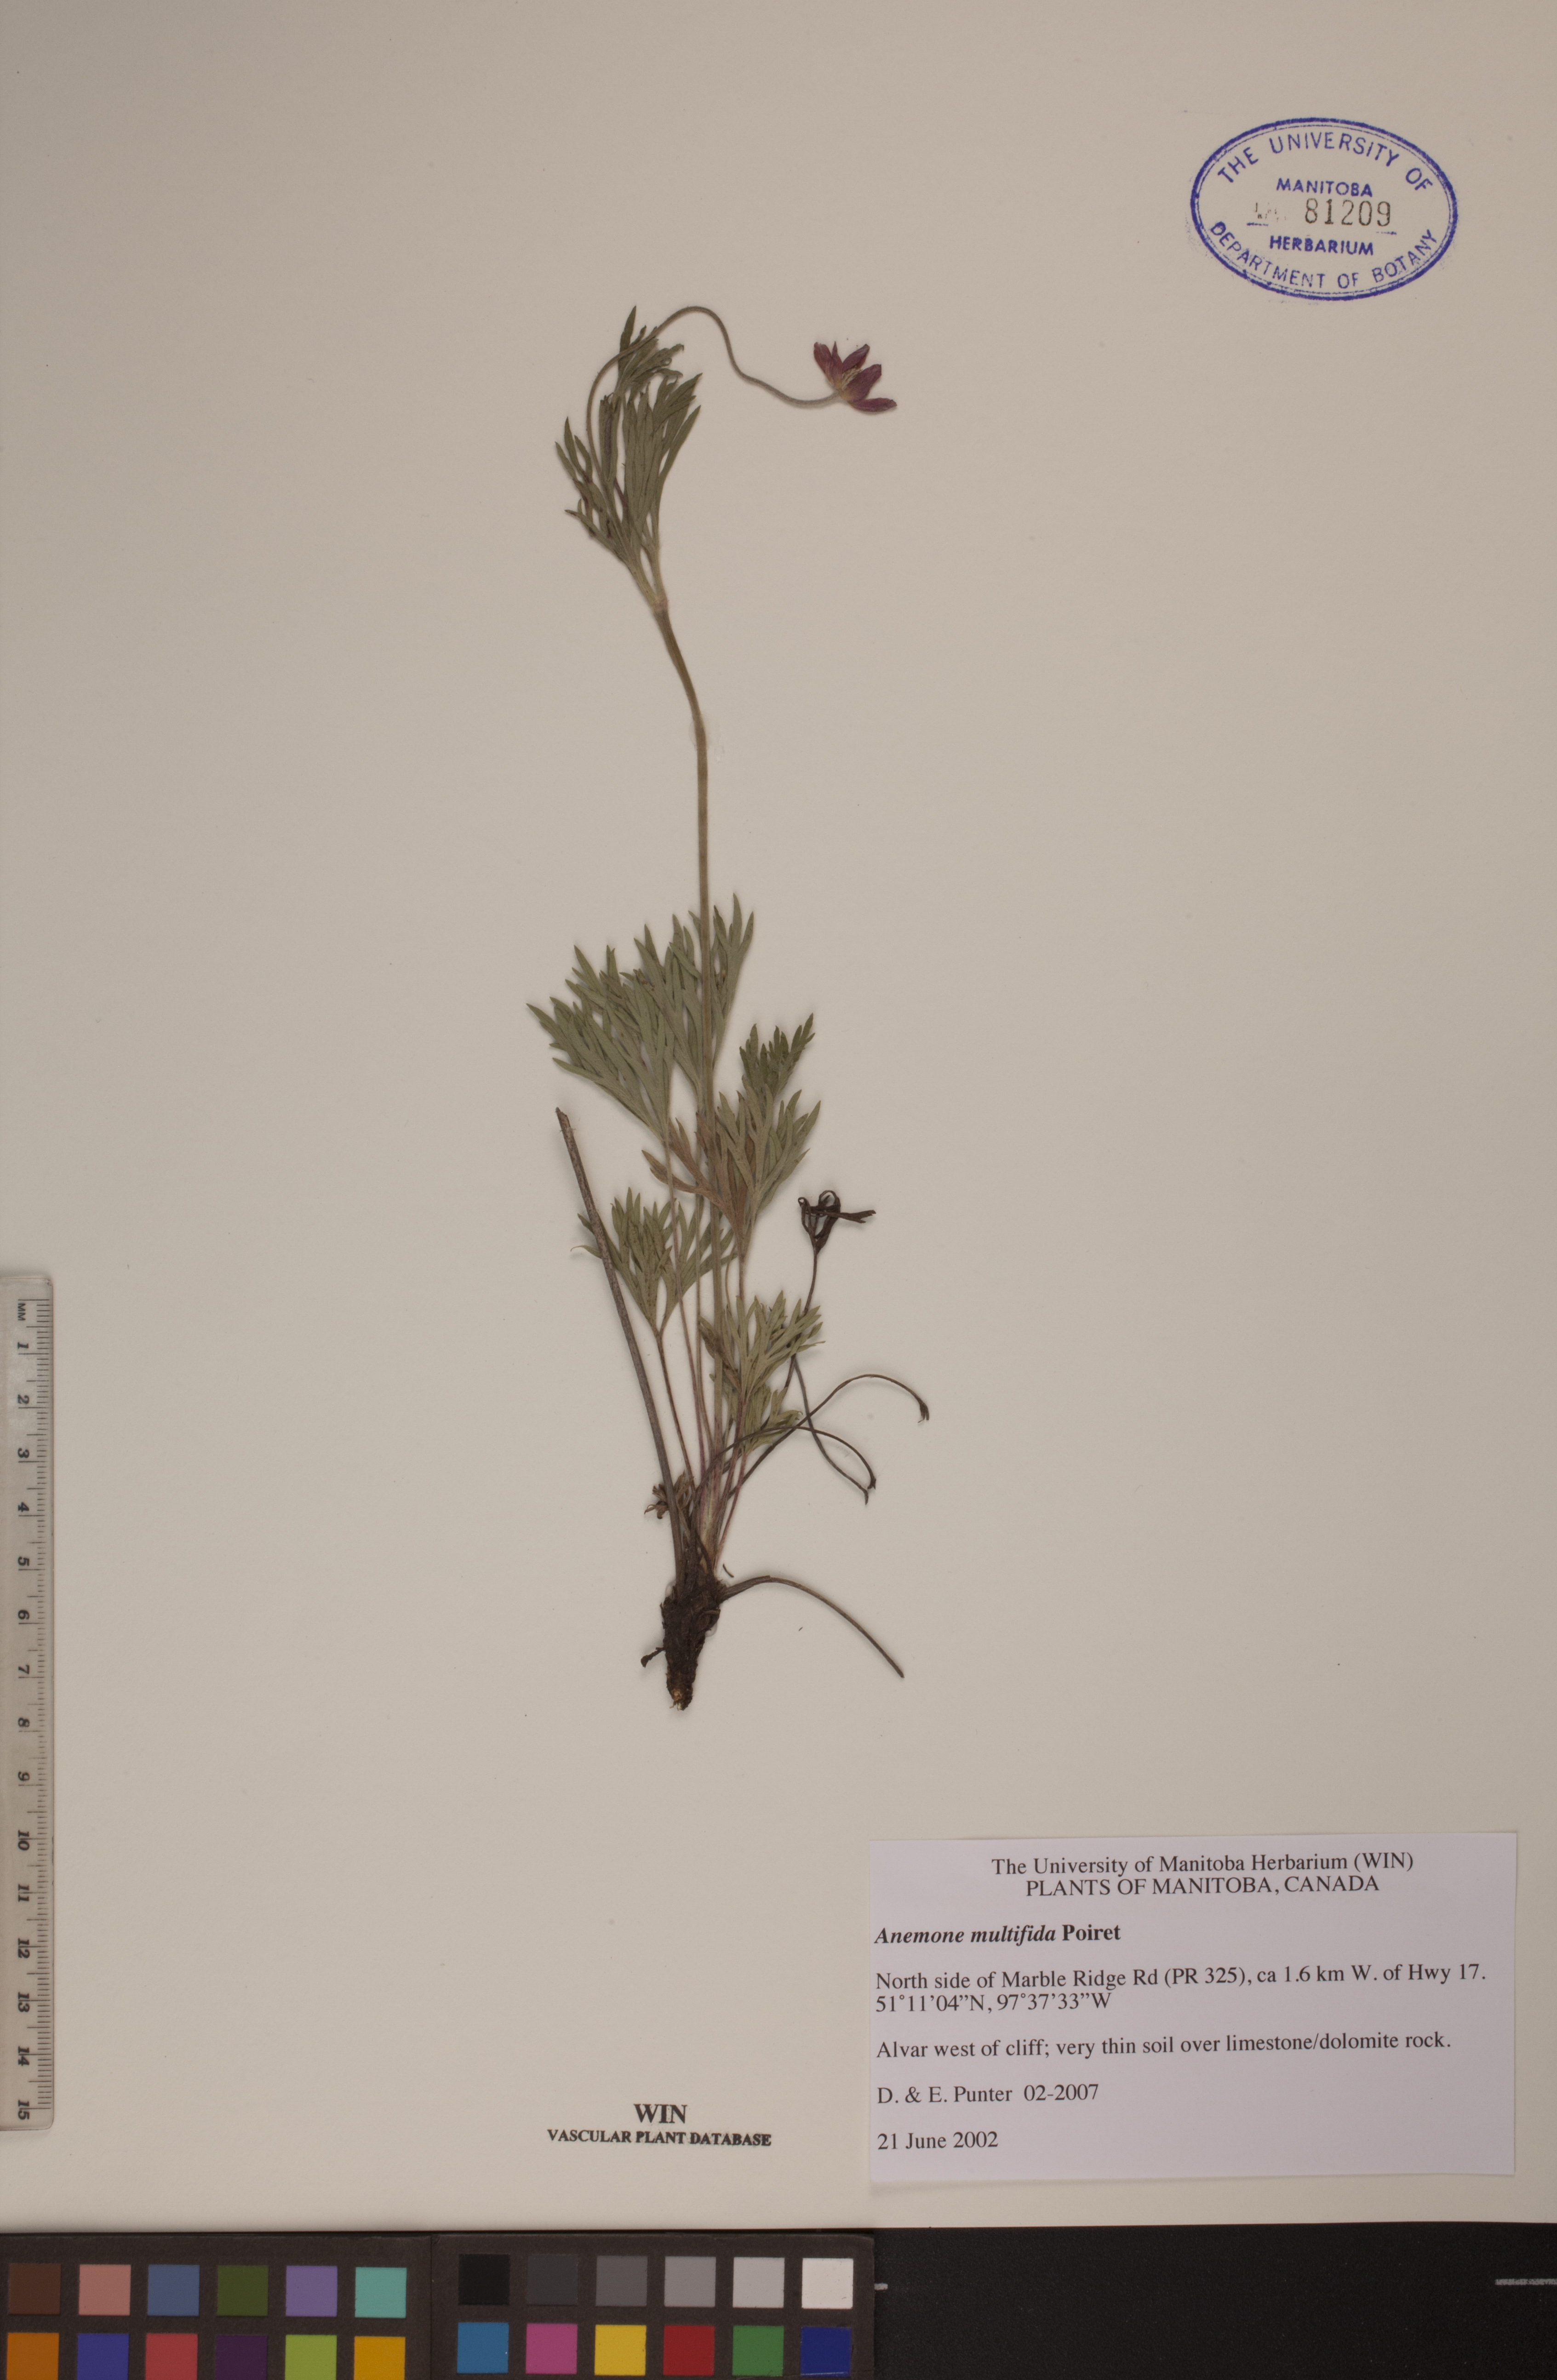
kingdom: Plantae
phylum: Tracheophyta
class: Magnoliopsida
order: Ranunculales
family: Ranunculaceae
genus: Anemone
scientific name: Anemone multifida
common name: Bird's-foot anemone
